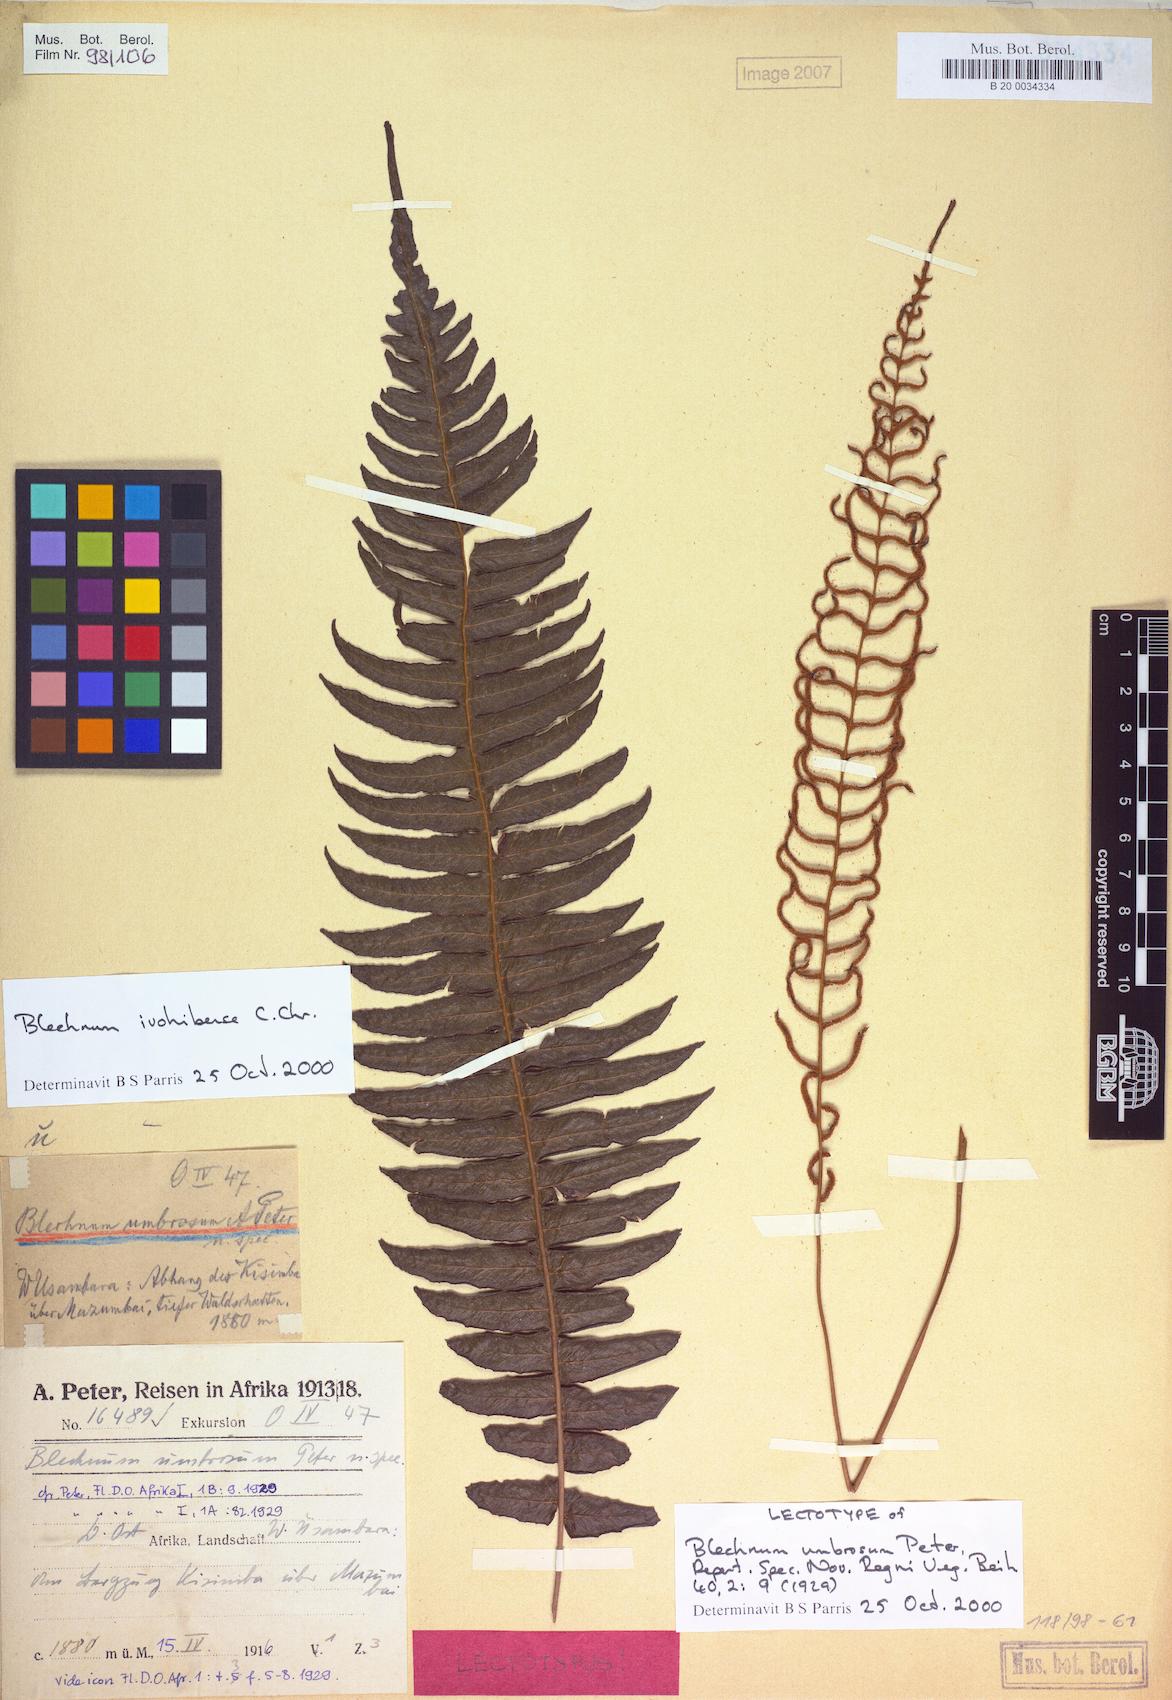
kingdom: Plantae
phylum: Tracheophyta
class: Polypodiopsida
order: Polypodiales
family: Blechnaceae
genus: Cranfillia
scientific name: Cranfillia bakeri
